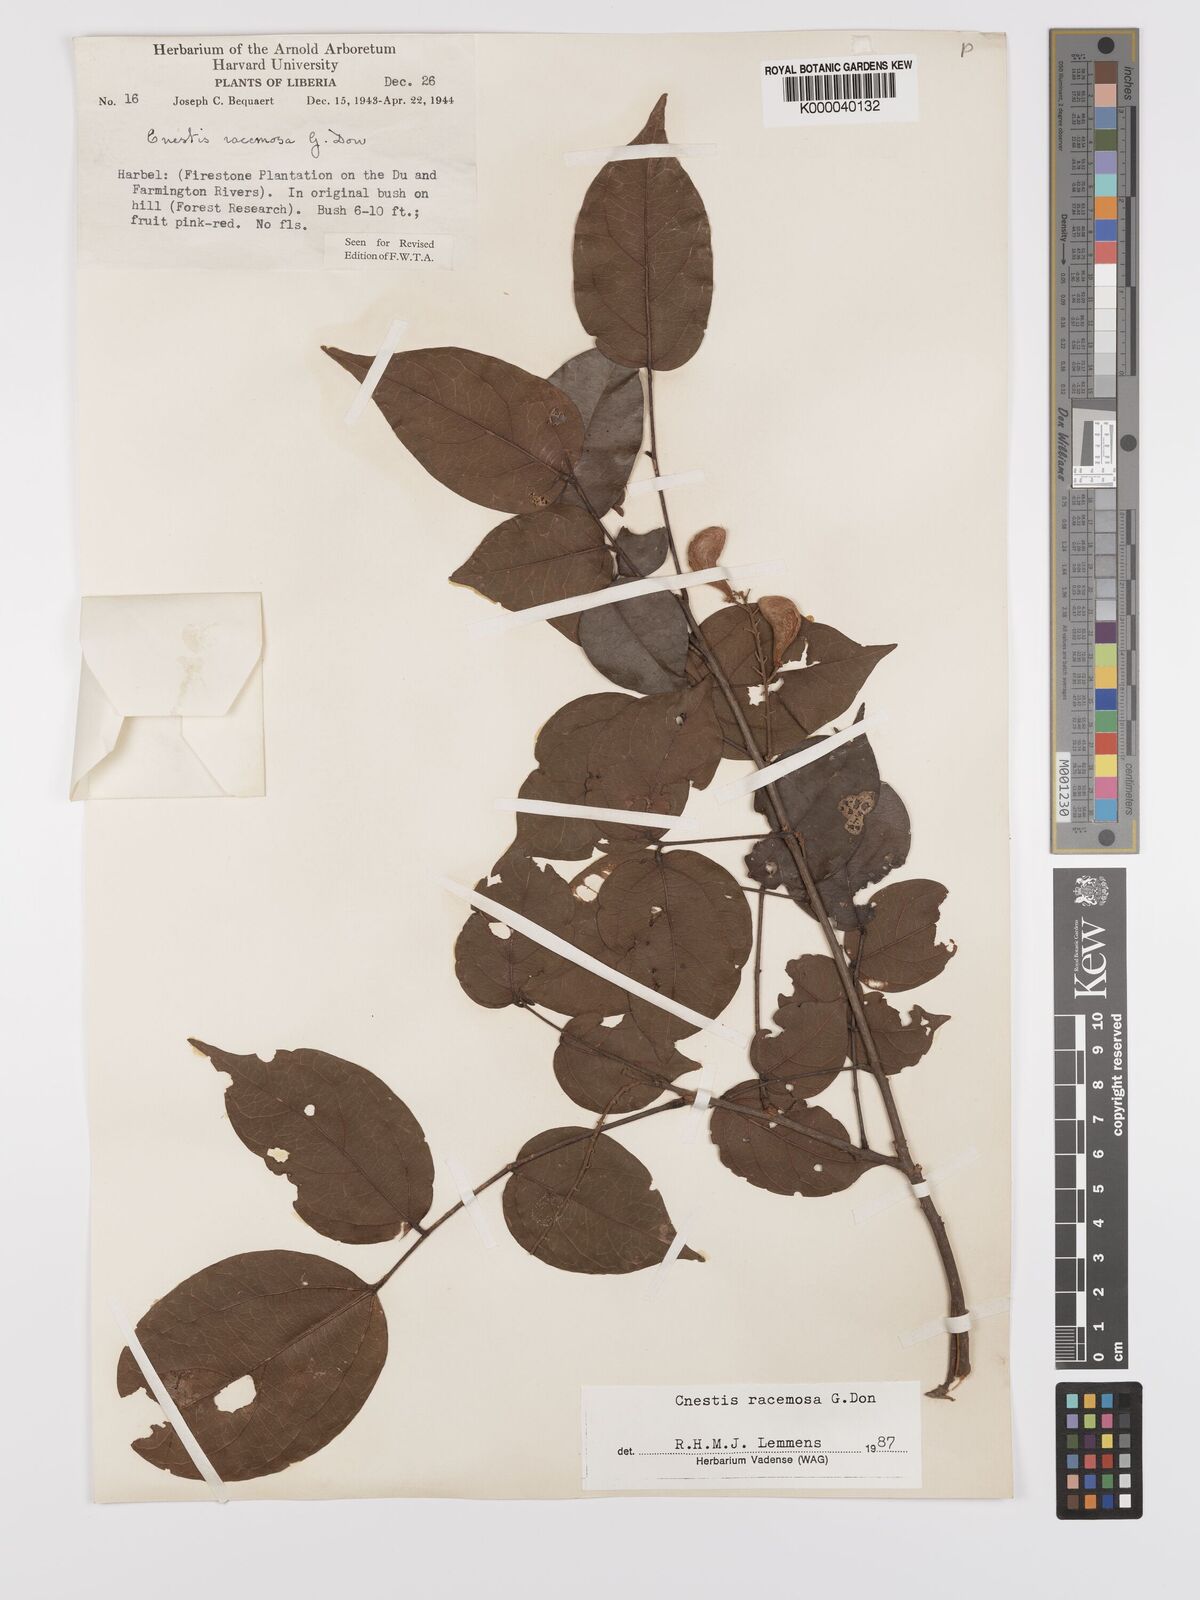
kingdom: Plantae
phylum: Tracheophyta
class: Magnoliopsida
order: Oxalidales
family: Connaraceae
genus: Cnestis
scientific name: Cnestis racemosa
